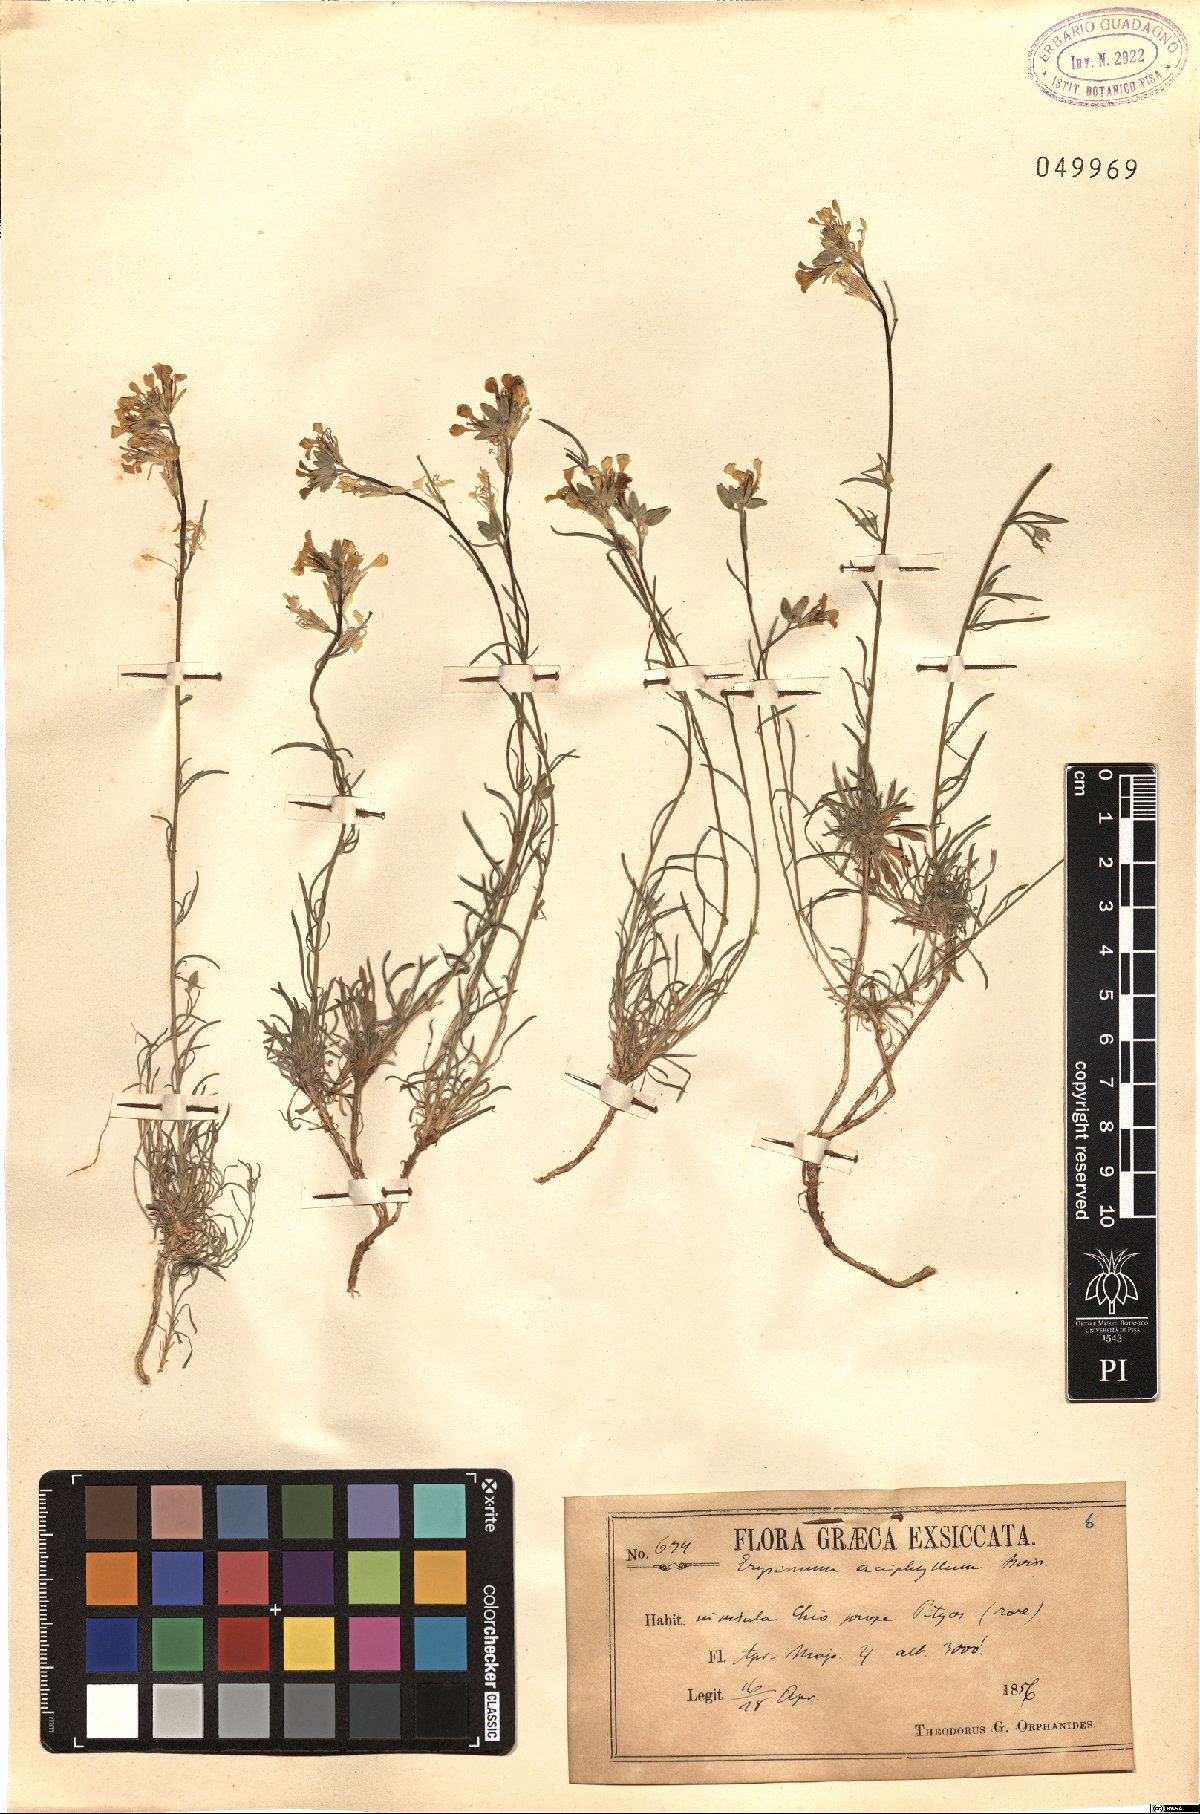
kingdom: Plantae
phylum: Tracheophyta
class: Magnoliopsida
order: Brassicales
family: Brassicaceae
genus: Erysimum
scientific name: Erysimum leptocarpum
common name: Thin-fruited tracle mustard
